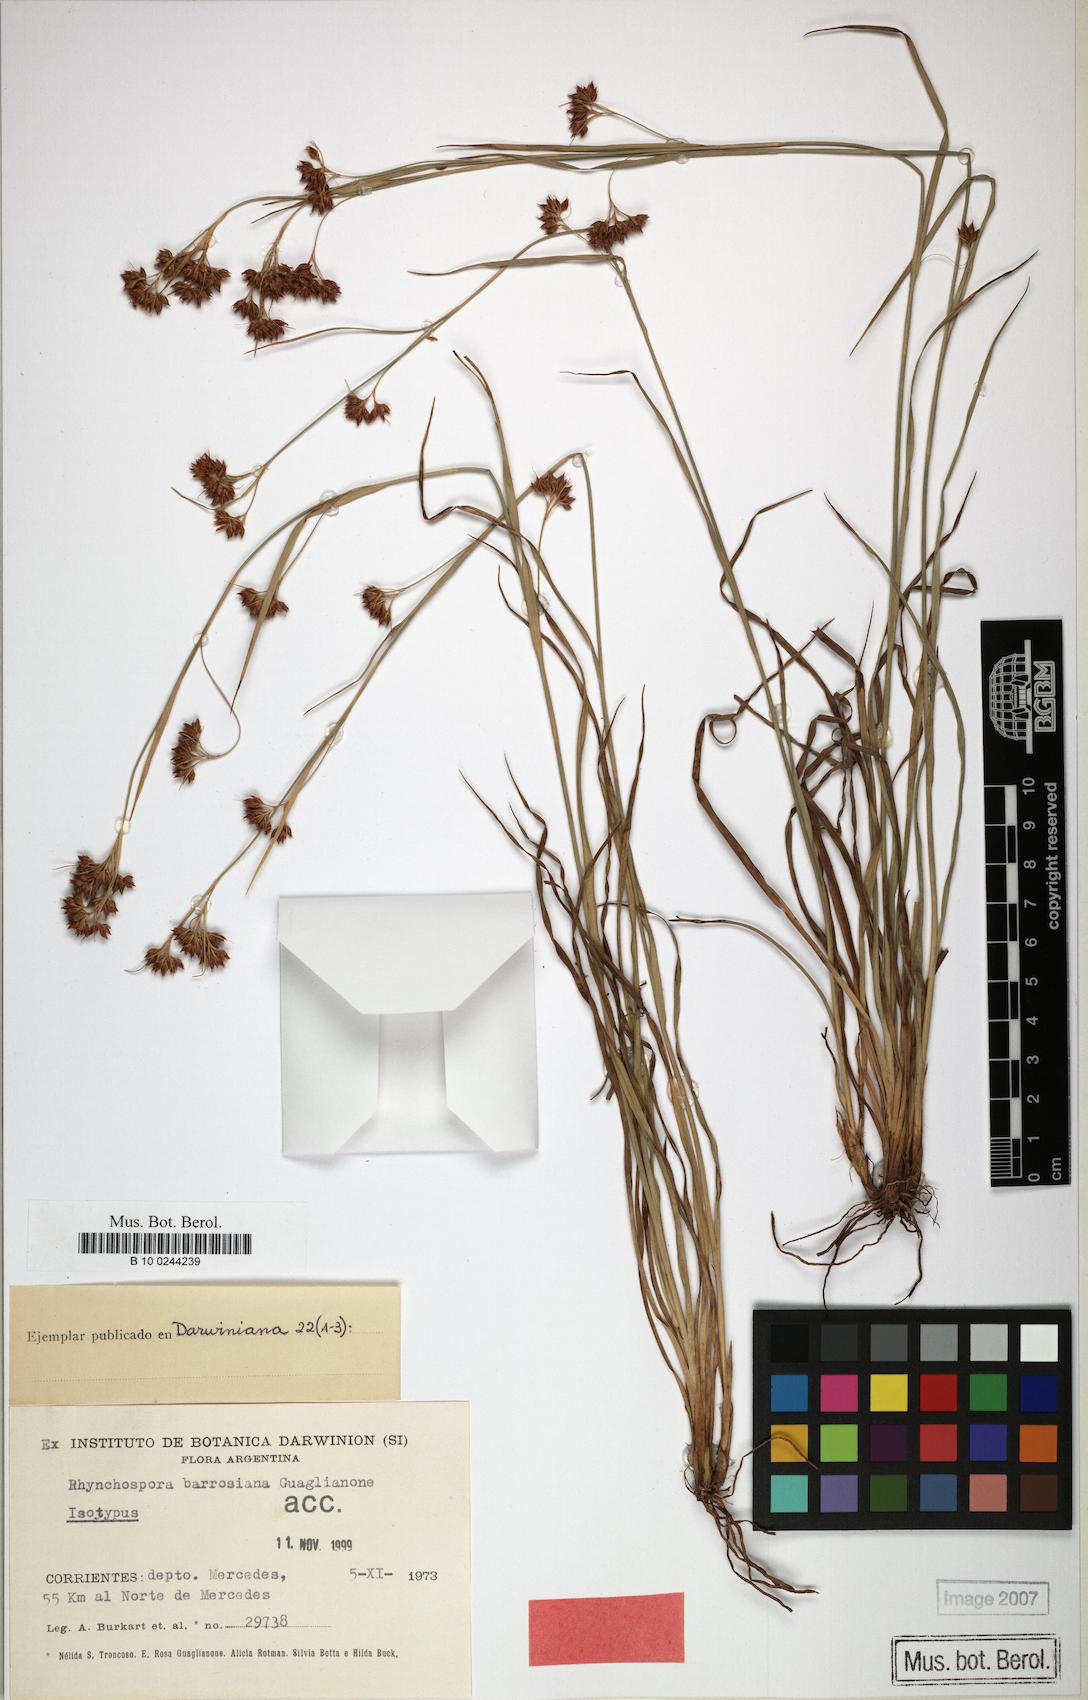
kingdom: Plantae
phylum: Tracheophyta
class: Liliopsida
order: Poales
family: Cyperaceae
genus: Rhynchospora
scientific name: Rhynchospora barrosiana
